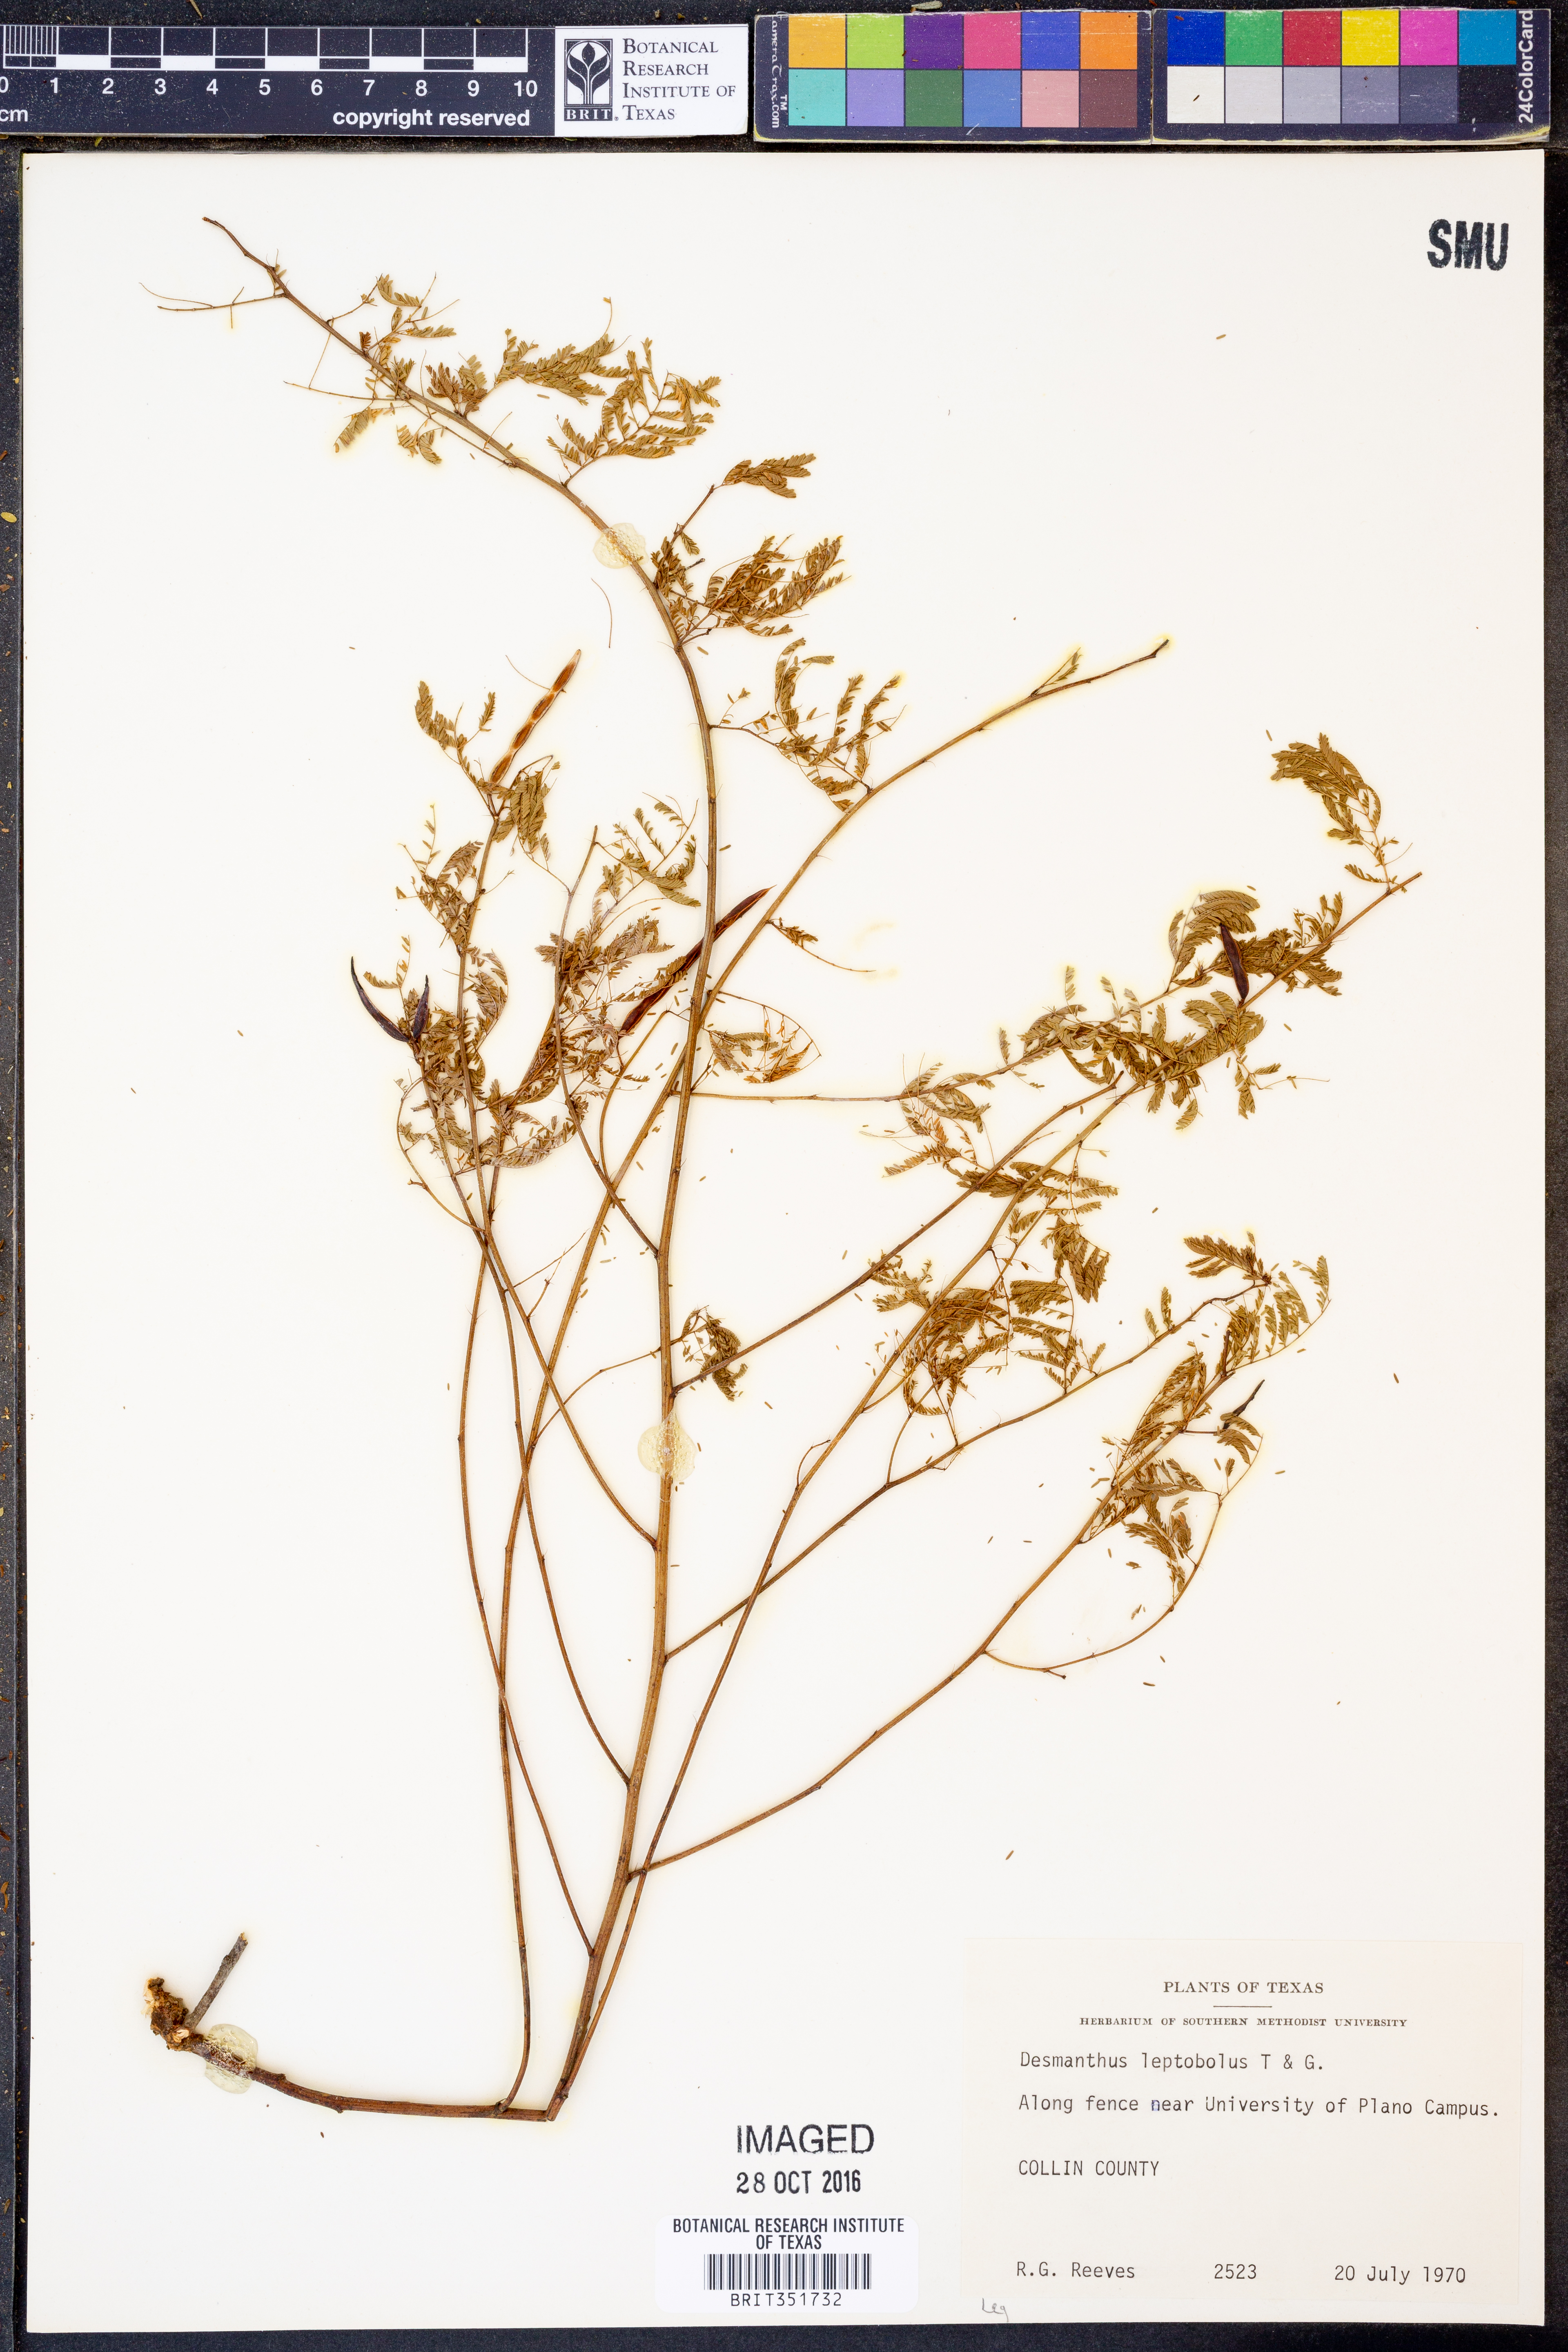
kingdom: Plantae
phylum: Tracheophyta
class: Magnoliopsida
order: Fabales
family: Fabaceae
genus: Desmanthus
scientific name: Desmanthus leptolobus
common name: Prairie-mimosa
